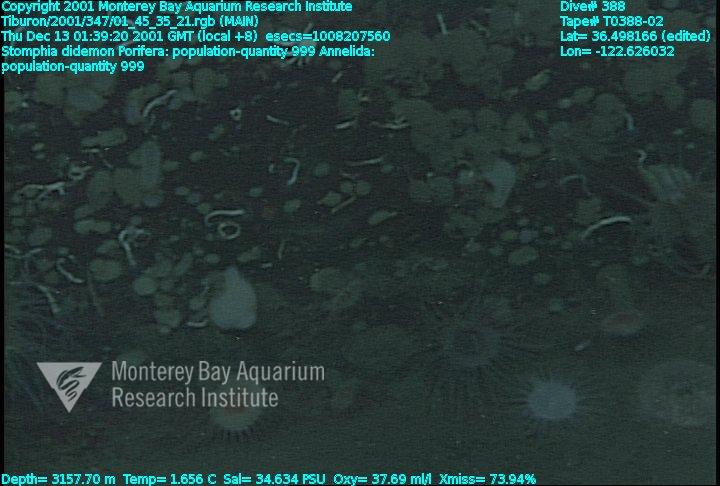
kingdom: Animalia
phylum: Porifera
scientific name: Porifera
